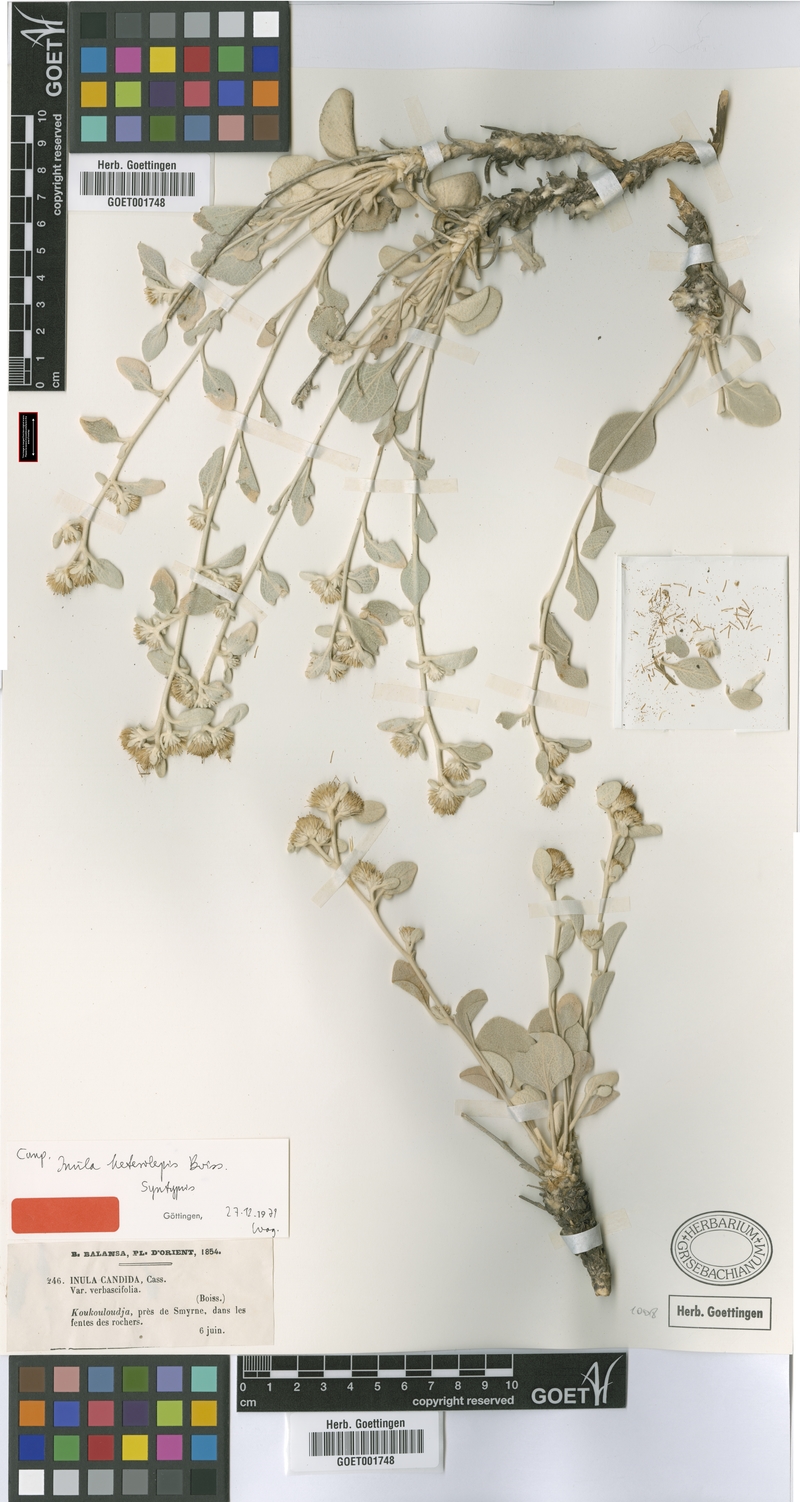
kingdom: Plantae
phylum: Tracheophyta
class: Magnoliopsida
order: Asterales
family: Asteraceae
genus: Pentanema
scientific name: Pentanema verbascifolium
